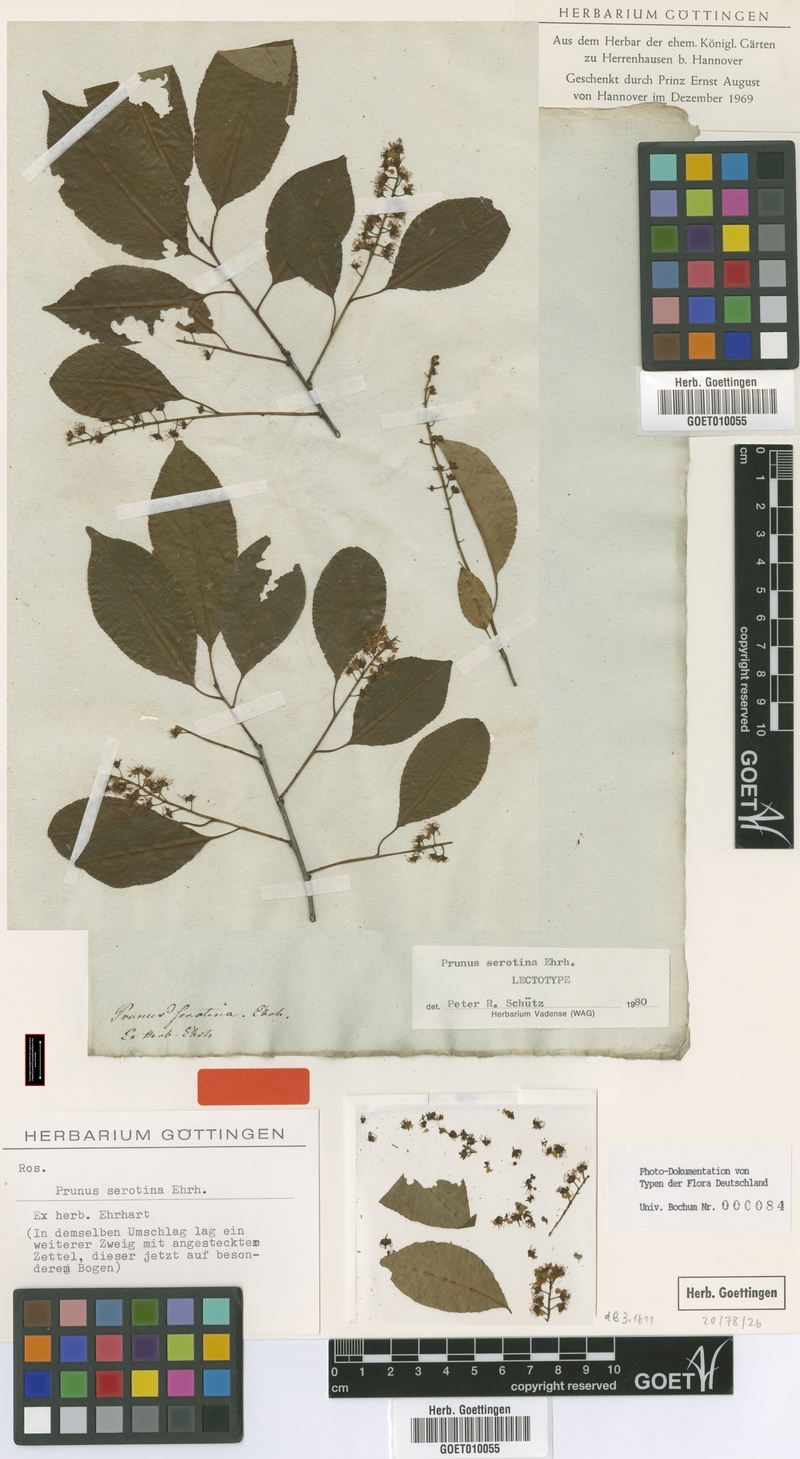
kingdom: Plantae
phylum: Tracheophyta
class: Magnoliopsida
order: Rosales
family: Rosaceae
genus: Prunus
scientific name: Prunus serotina
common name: Black cherry
